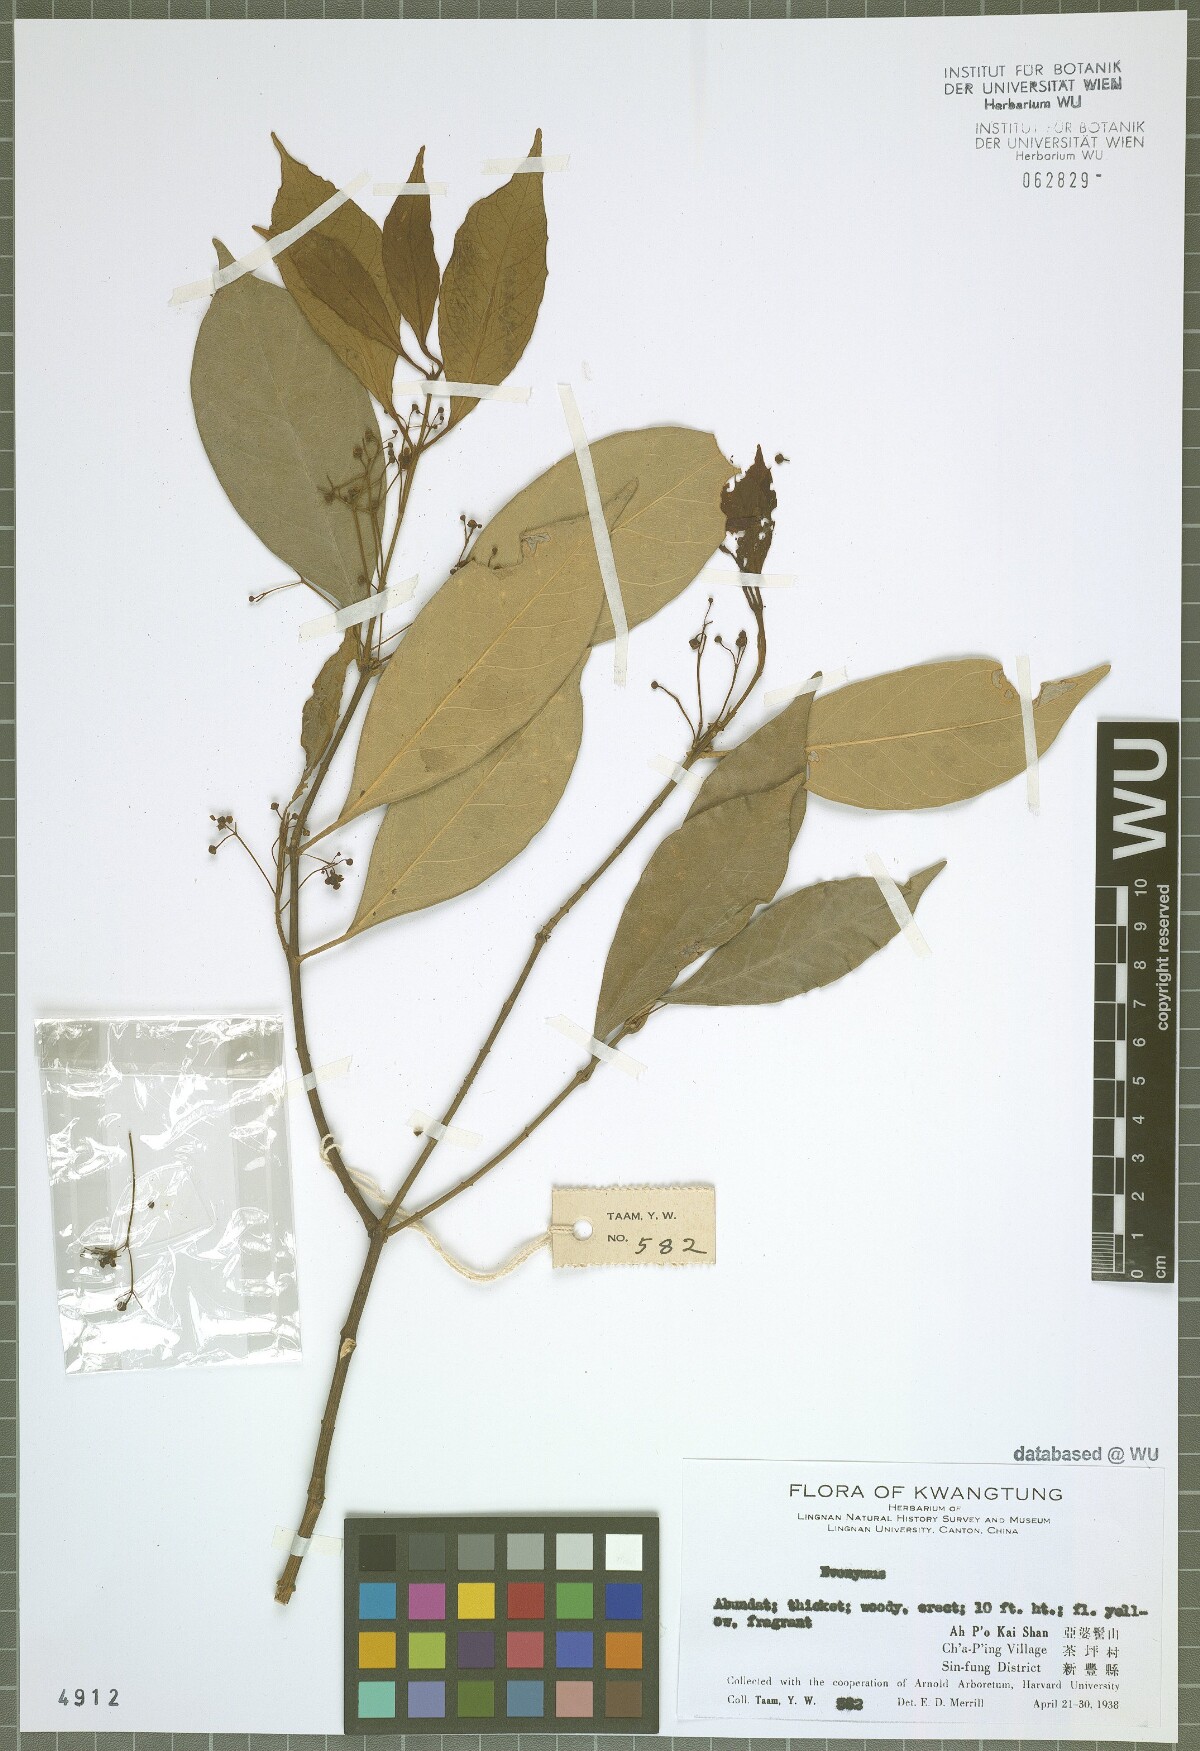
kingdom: Plantae
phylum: Tracheophyta
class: Magnoliopsida
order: Celastrales
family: Celastraceae
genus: Euonymus
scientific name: Euonymus
